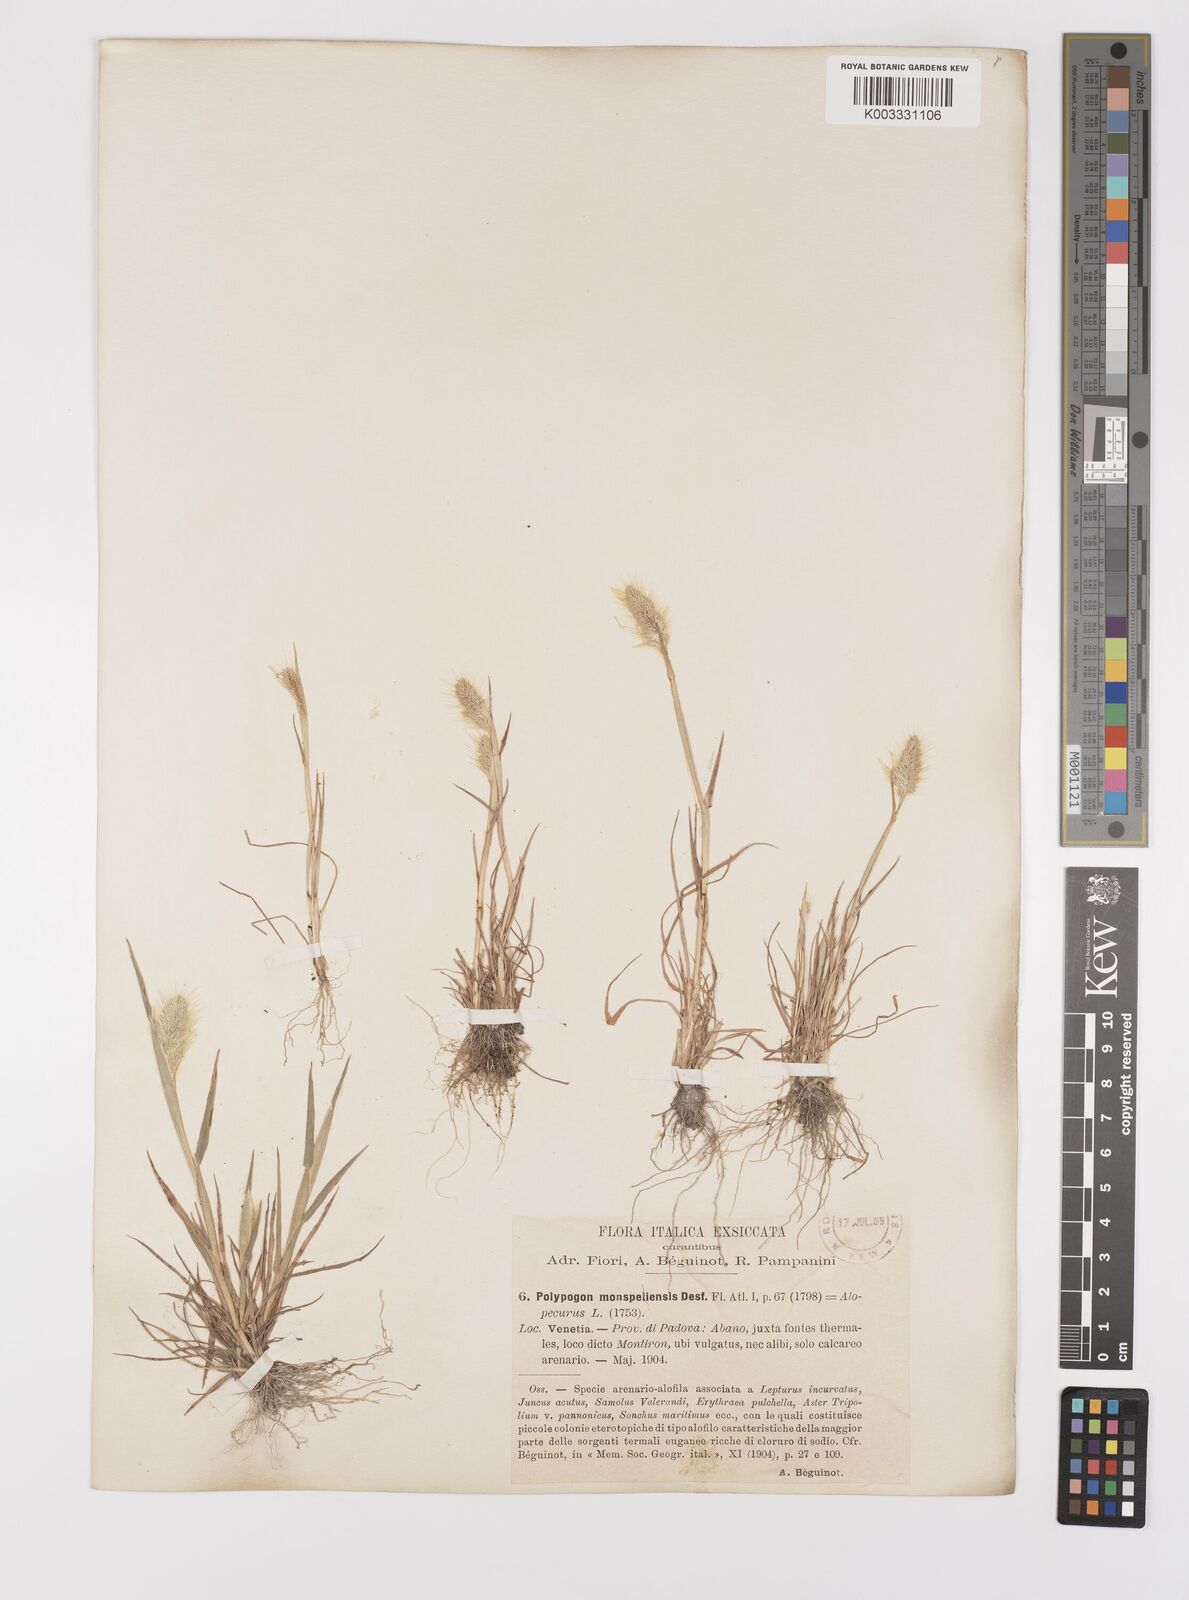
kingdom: Plantae
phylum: Tracheophyta
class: Liliopsida
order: Poales
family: Poaceae
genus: Polypogon
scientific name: Polypogon monspeliensis
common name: Annual rabbitsfoot grass
